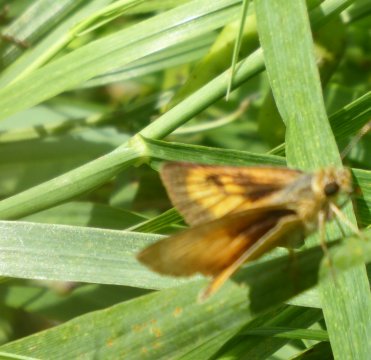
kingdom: Animalia
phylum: Arthropoda
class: Insecta
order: Lepidoptera
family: Hesperiidae
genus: Atrytone
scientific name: Atrytone delaware
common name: Delaware Skipper
